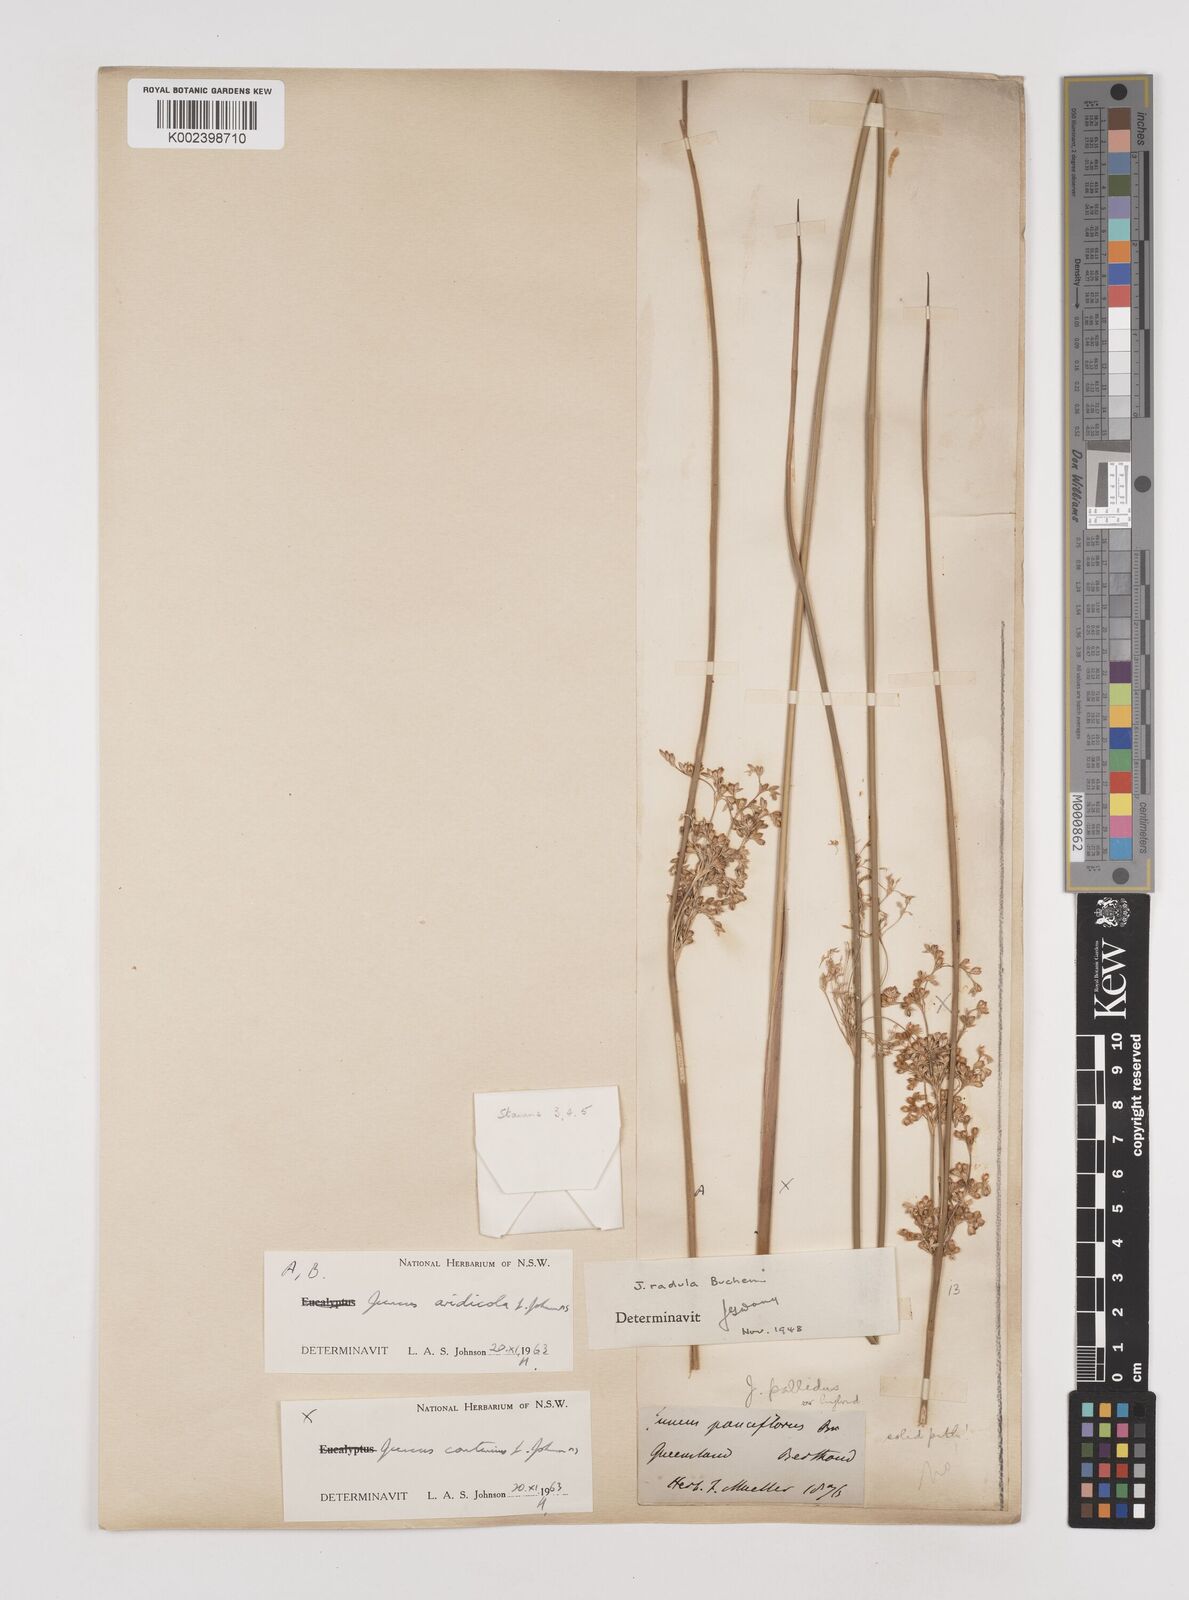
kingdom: Plantae
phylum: Tracheophyta
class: Liliopsida
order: Poales
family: Juncaceae
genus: Juncus
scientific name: Juncus aridicola
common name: Tussock rush
